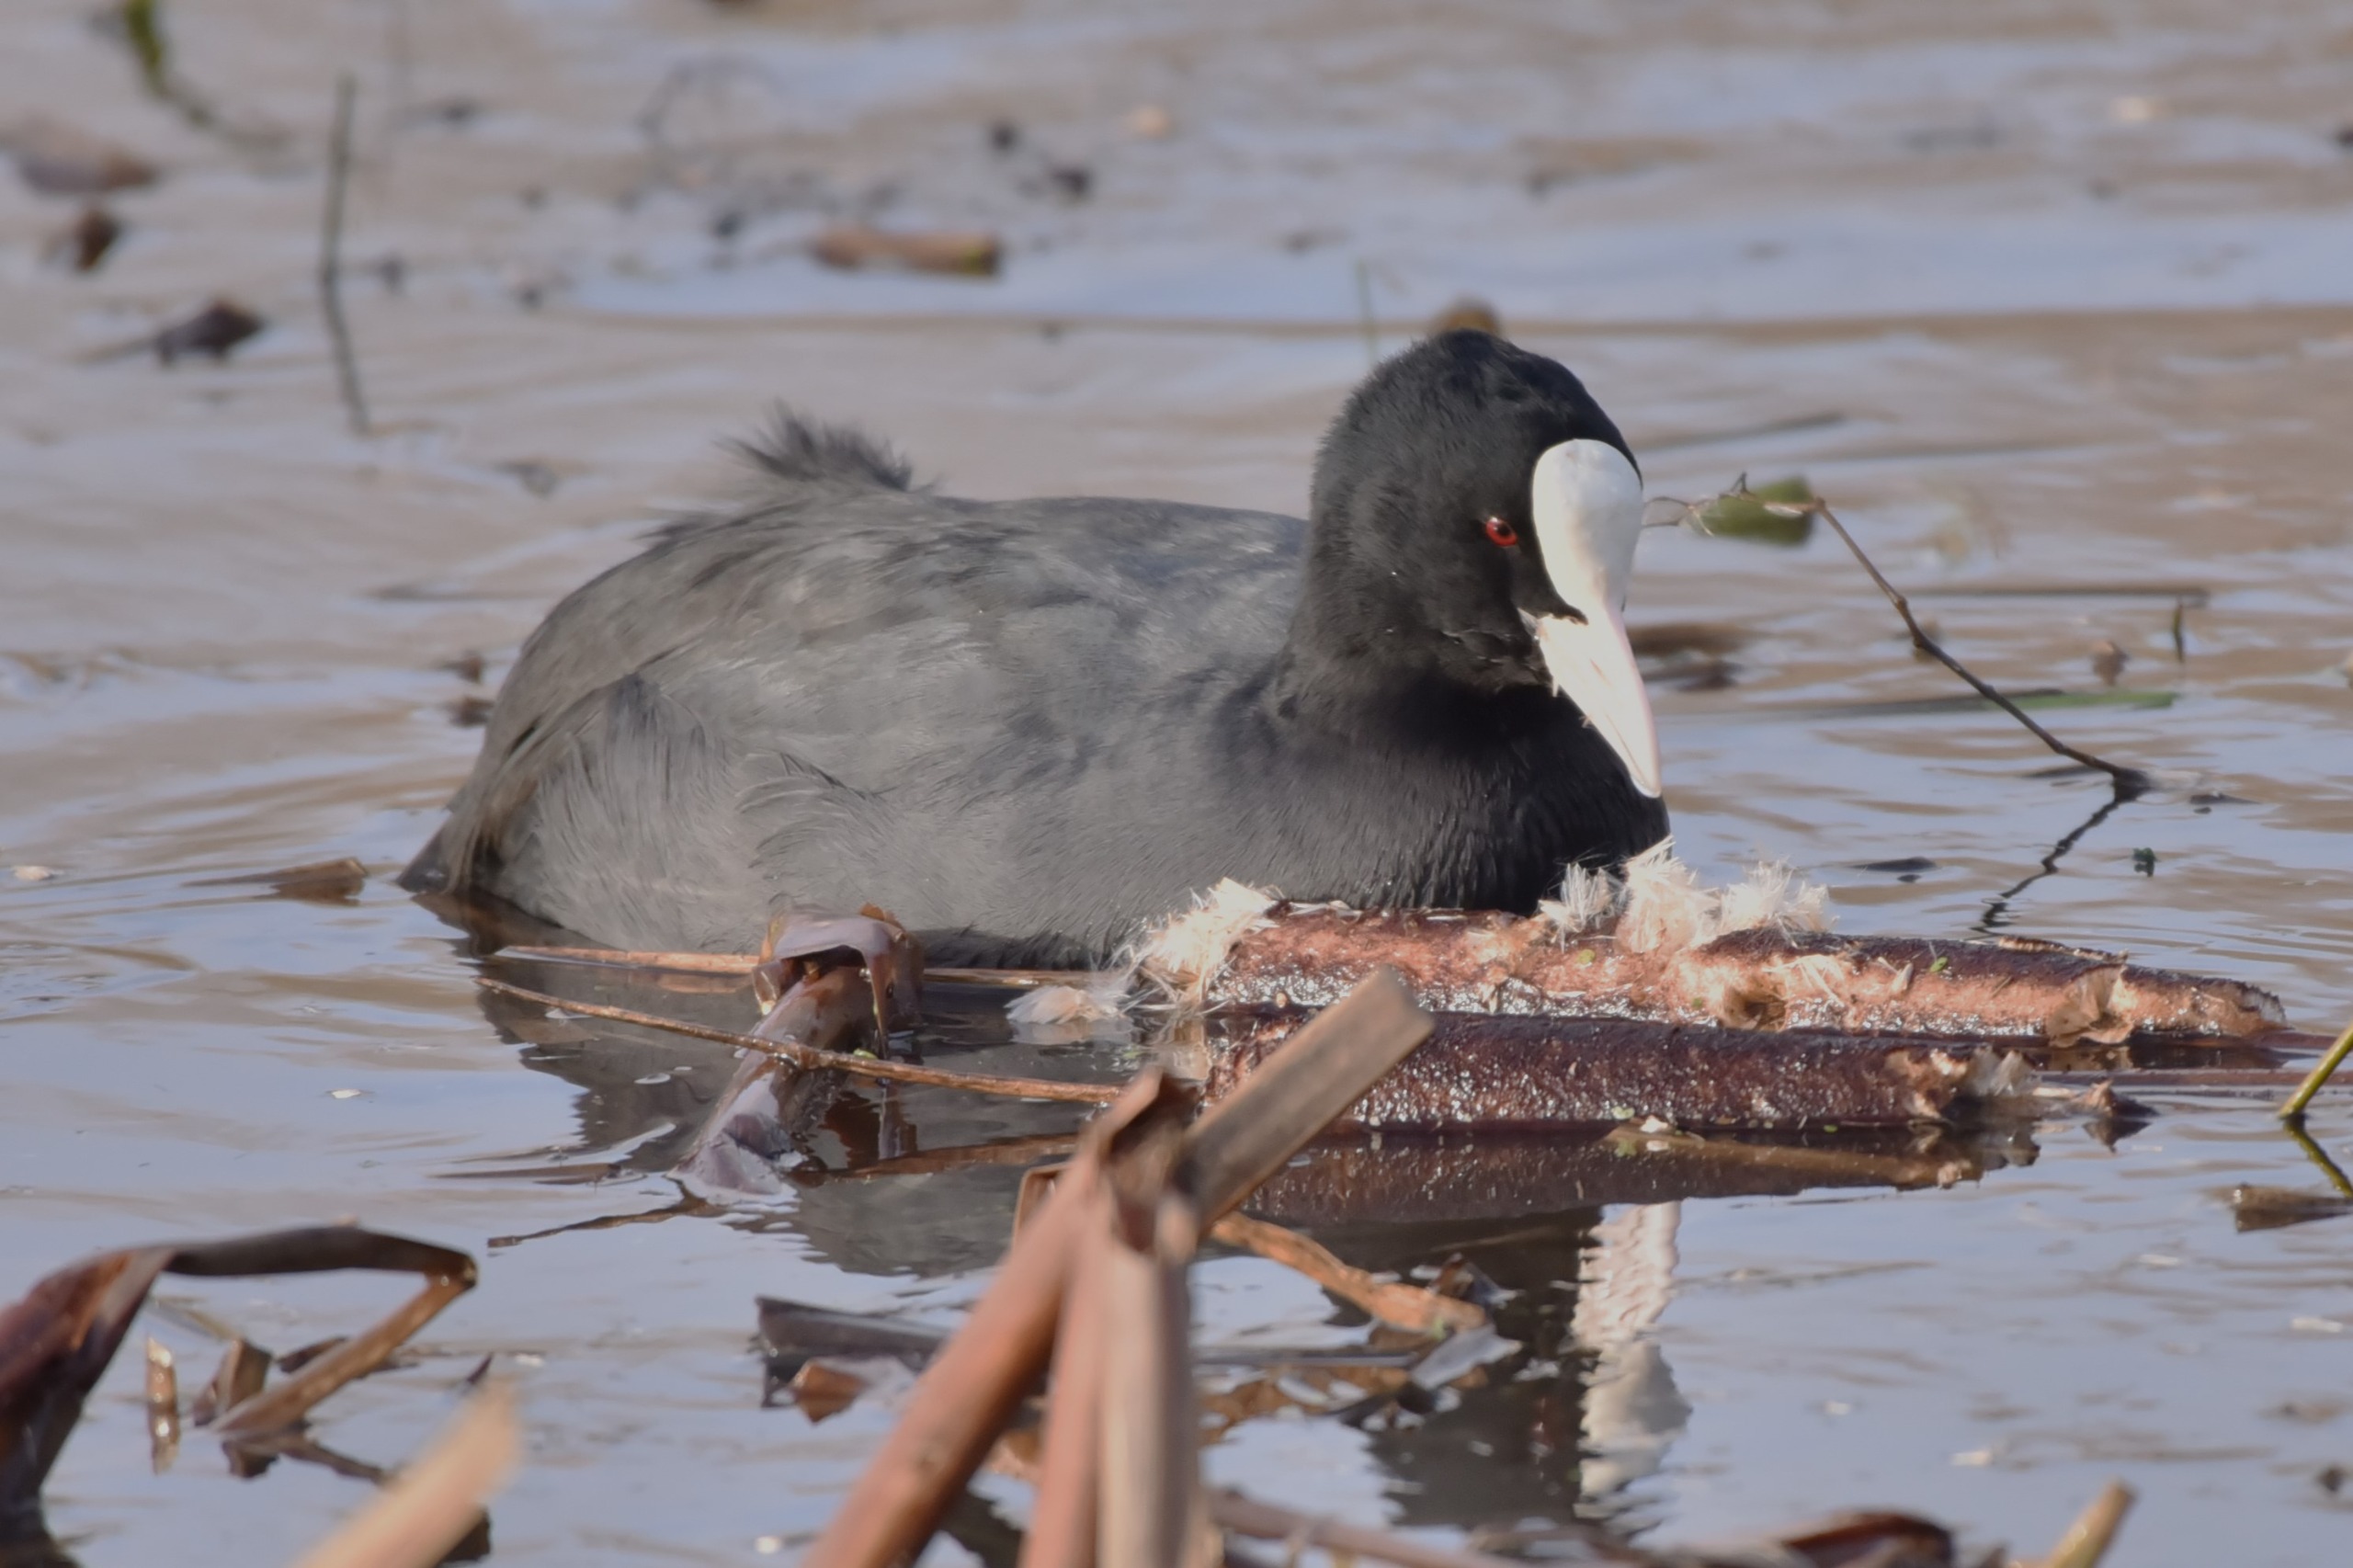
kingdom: Animalia
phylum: Chordata
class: Aves
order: Gruiformes
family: Rallidae
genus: Fulica
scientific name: Fulica atra
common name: Blishøne
